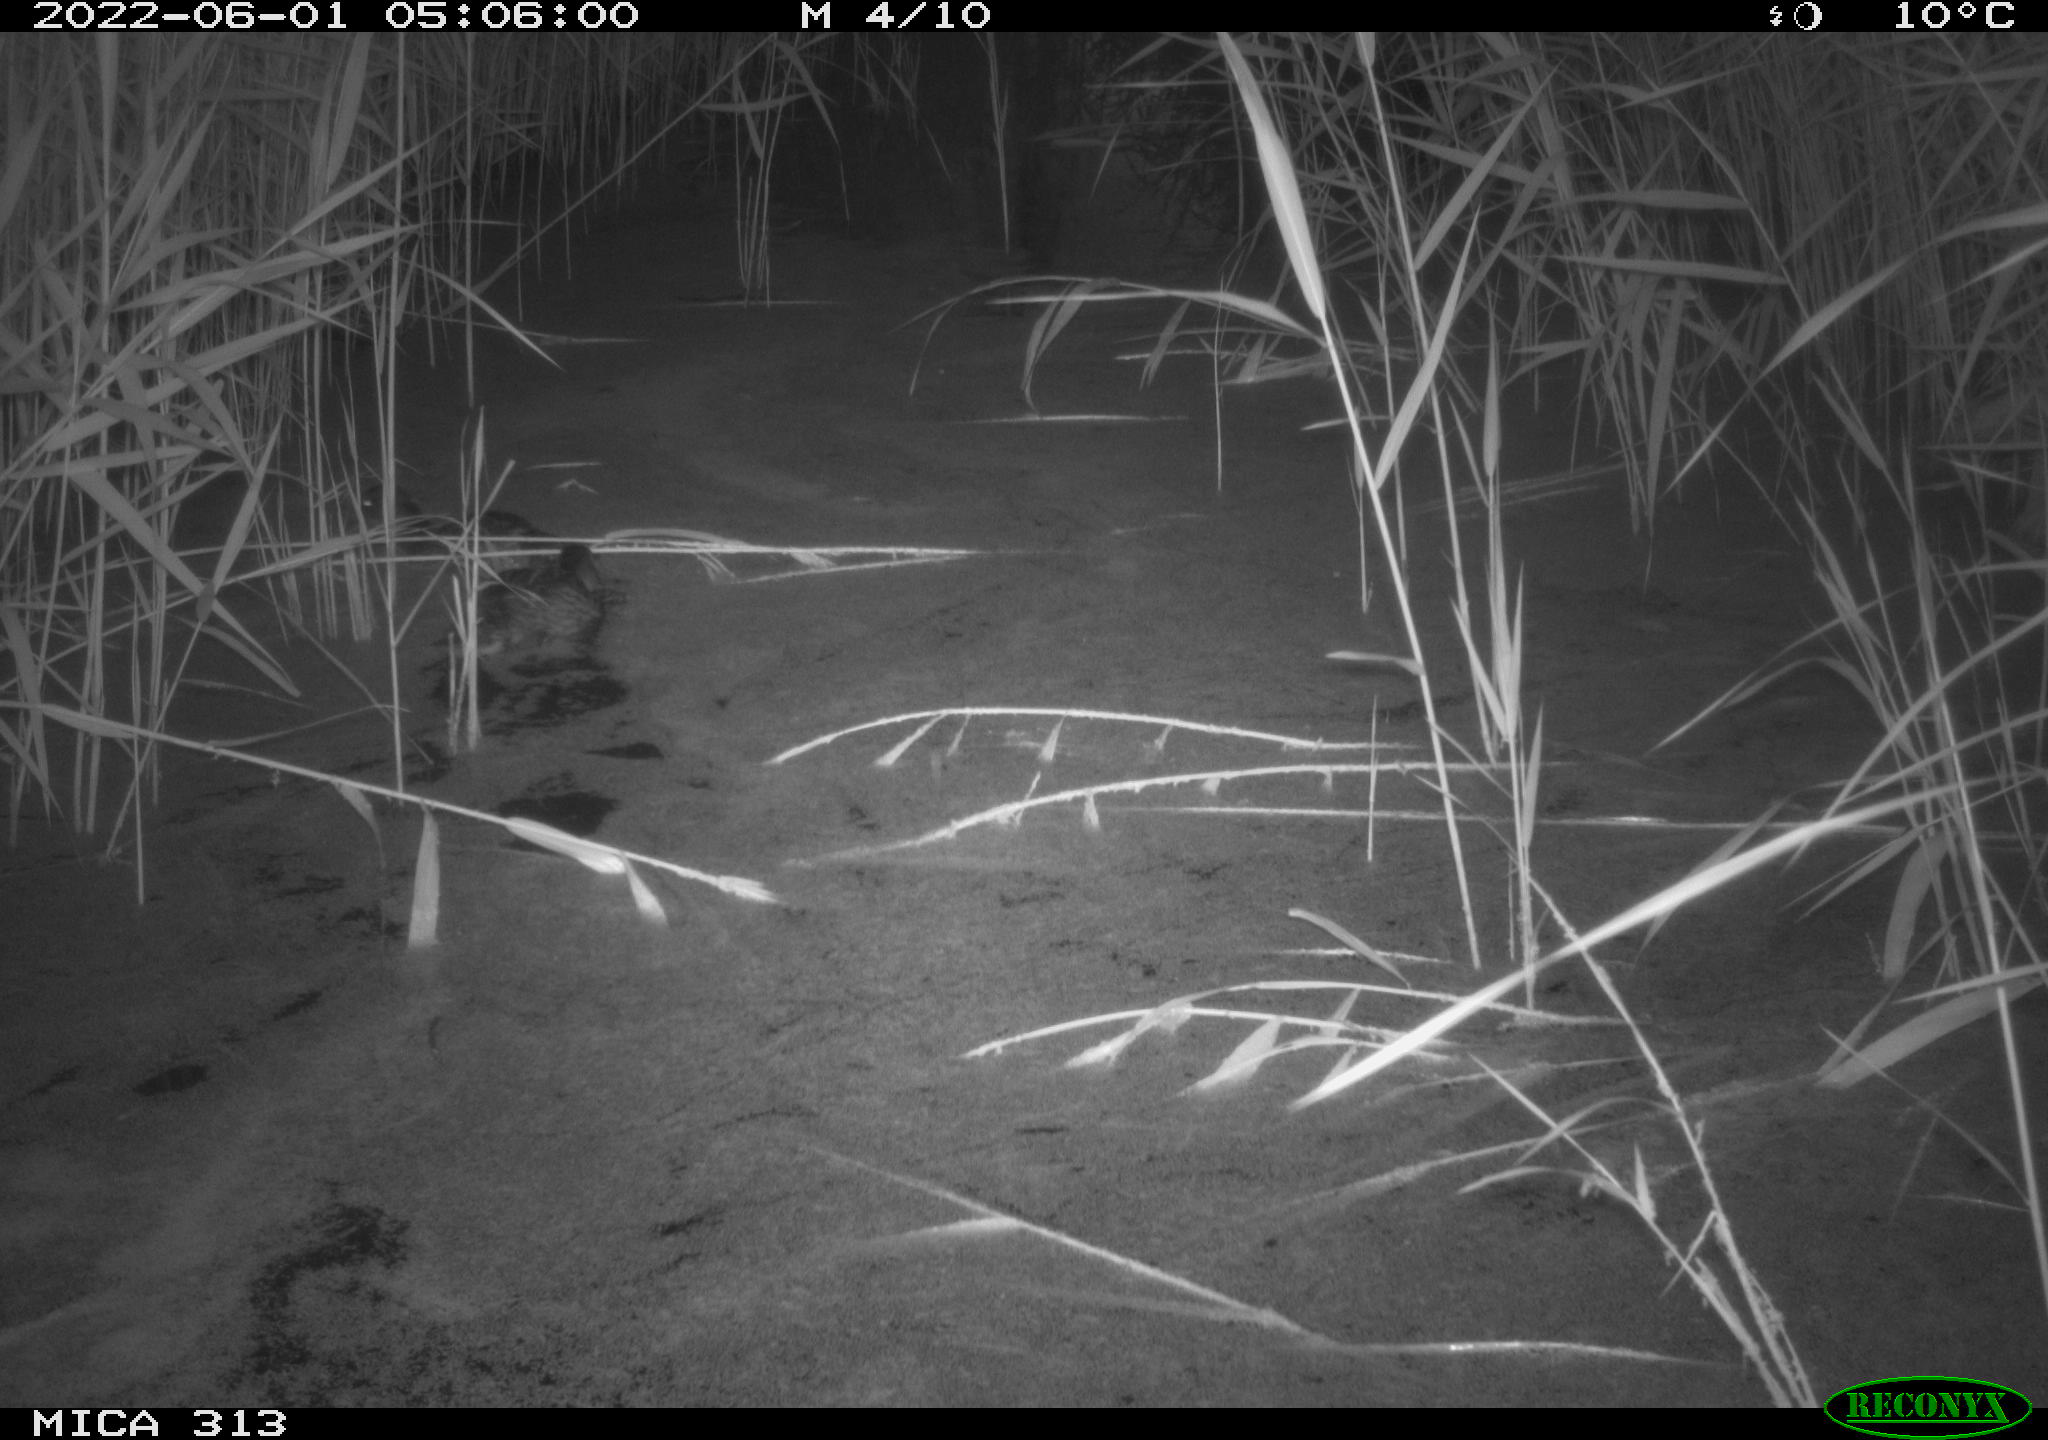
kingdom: Animalia
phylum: Chordata
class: Aves
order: Anseriformes
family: Anatidae
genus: Anas
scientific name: Anas platyrhynchos
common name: Mallard
